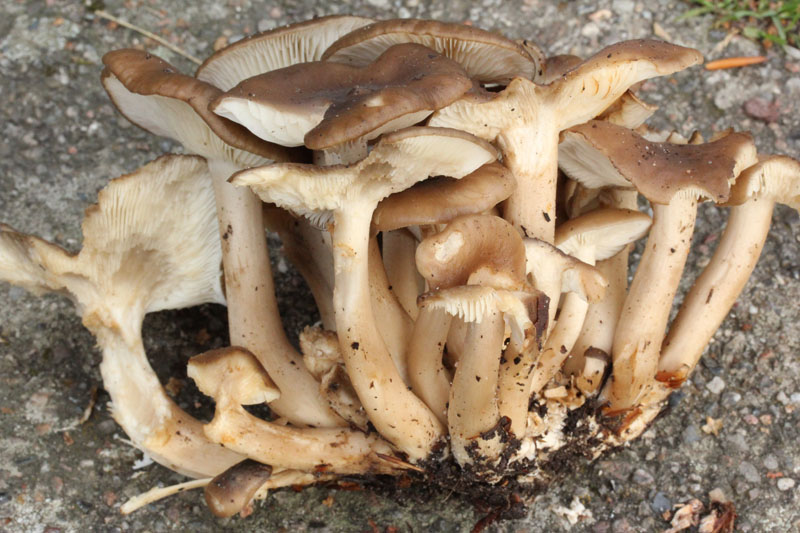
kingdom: Fungi
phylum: Basidiomycota
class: Agaricomycetes
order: Agaricales
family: Lyophyllaceae
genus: Lyophyllum
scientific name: Lyophyllum decastes
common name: røggrå gråblad
